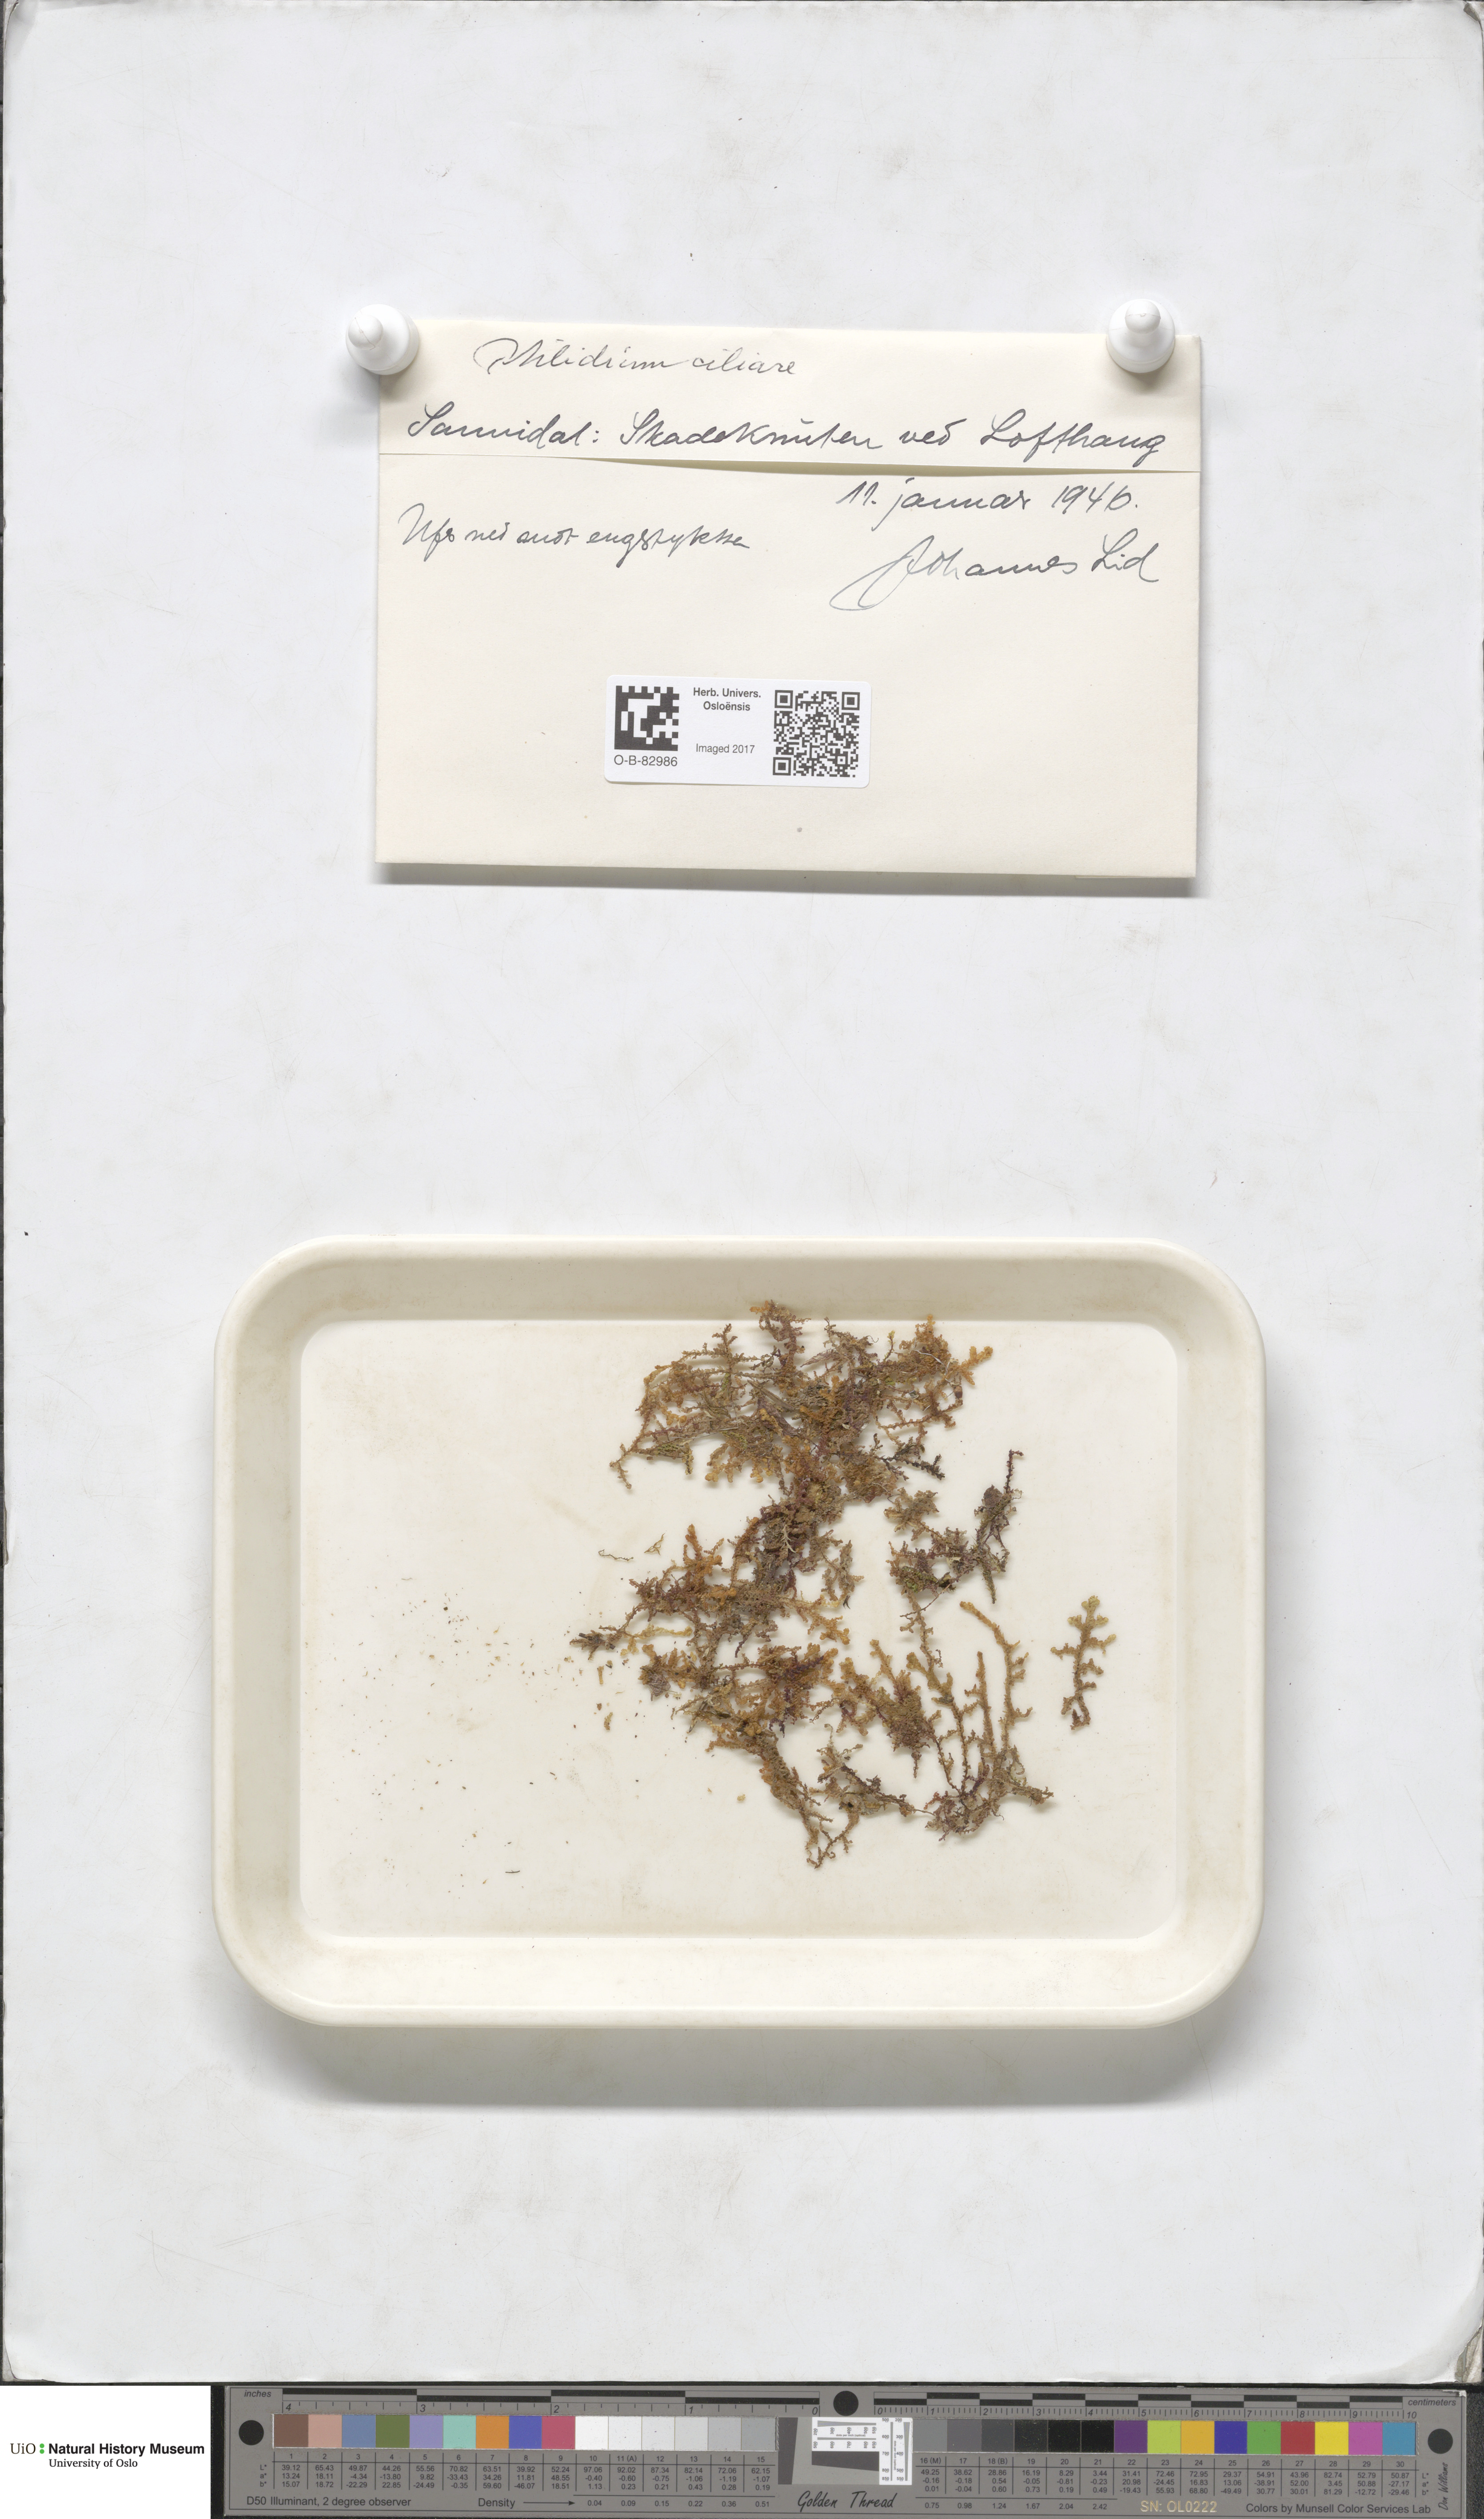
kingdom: Plantae
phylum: Marchantiophyta
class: Jungermanniopsida
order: Ptilidiales
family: Ptilidiaceae
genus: Ptilidium
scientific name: Ptilidium ciliare
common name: Ciliate fringewort
